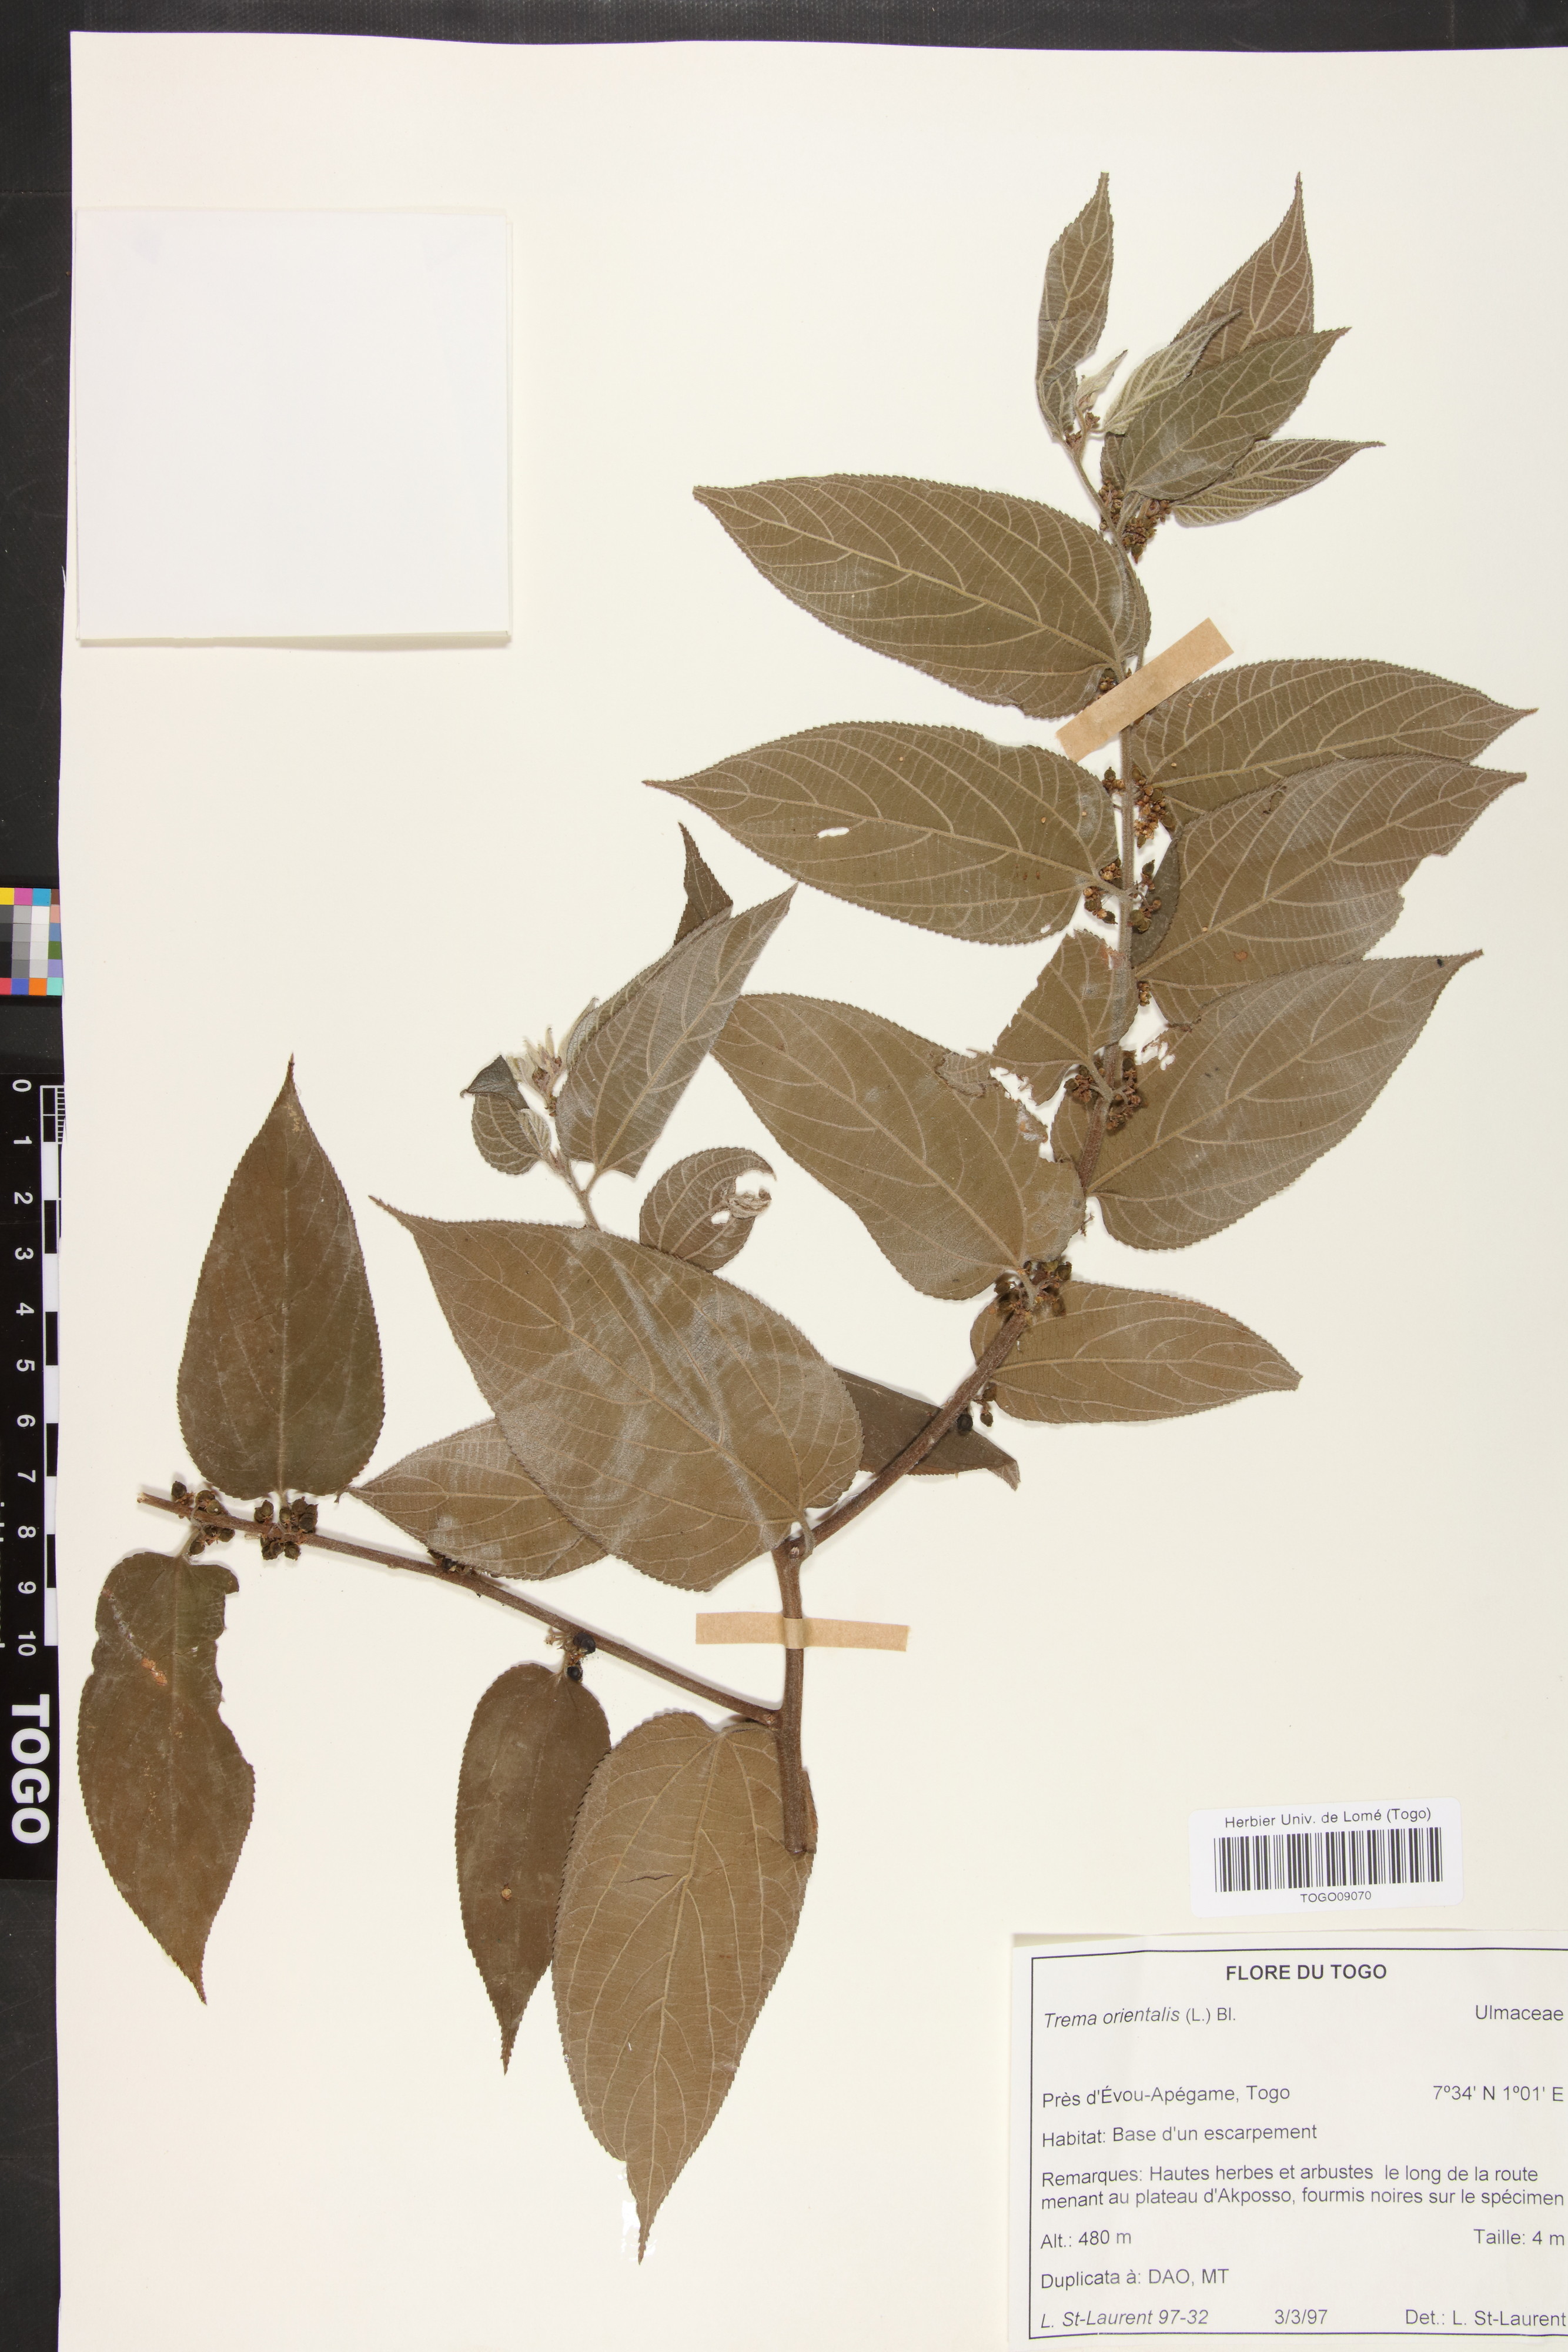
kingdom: Plantae
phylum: Tracheophyta
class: Magnoliopsida
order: Rosales
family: Cannabaceae
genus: Trema
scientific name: Trema orientale
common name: Indian charcoal tree
